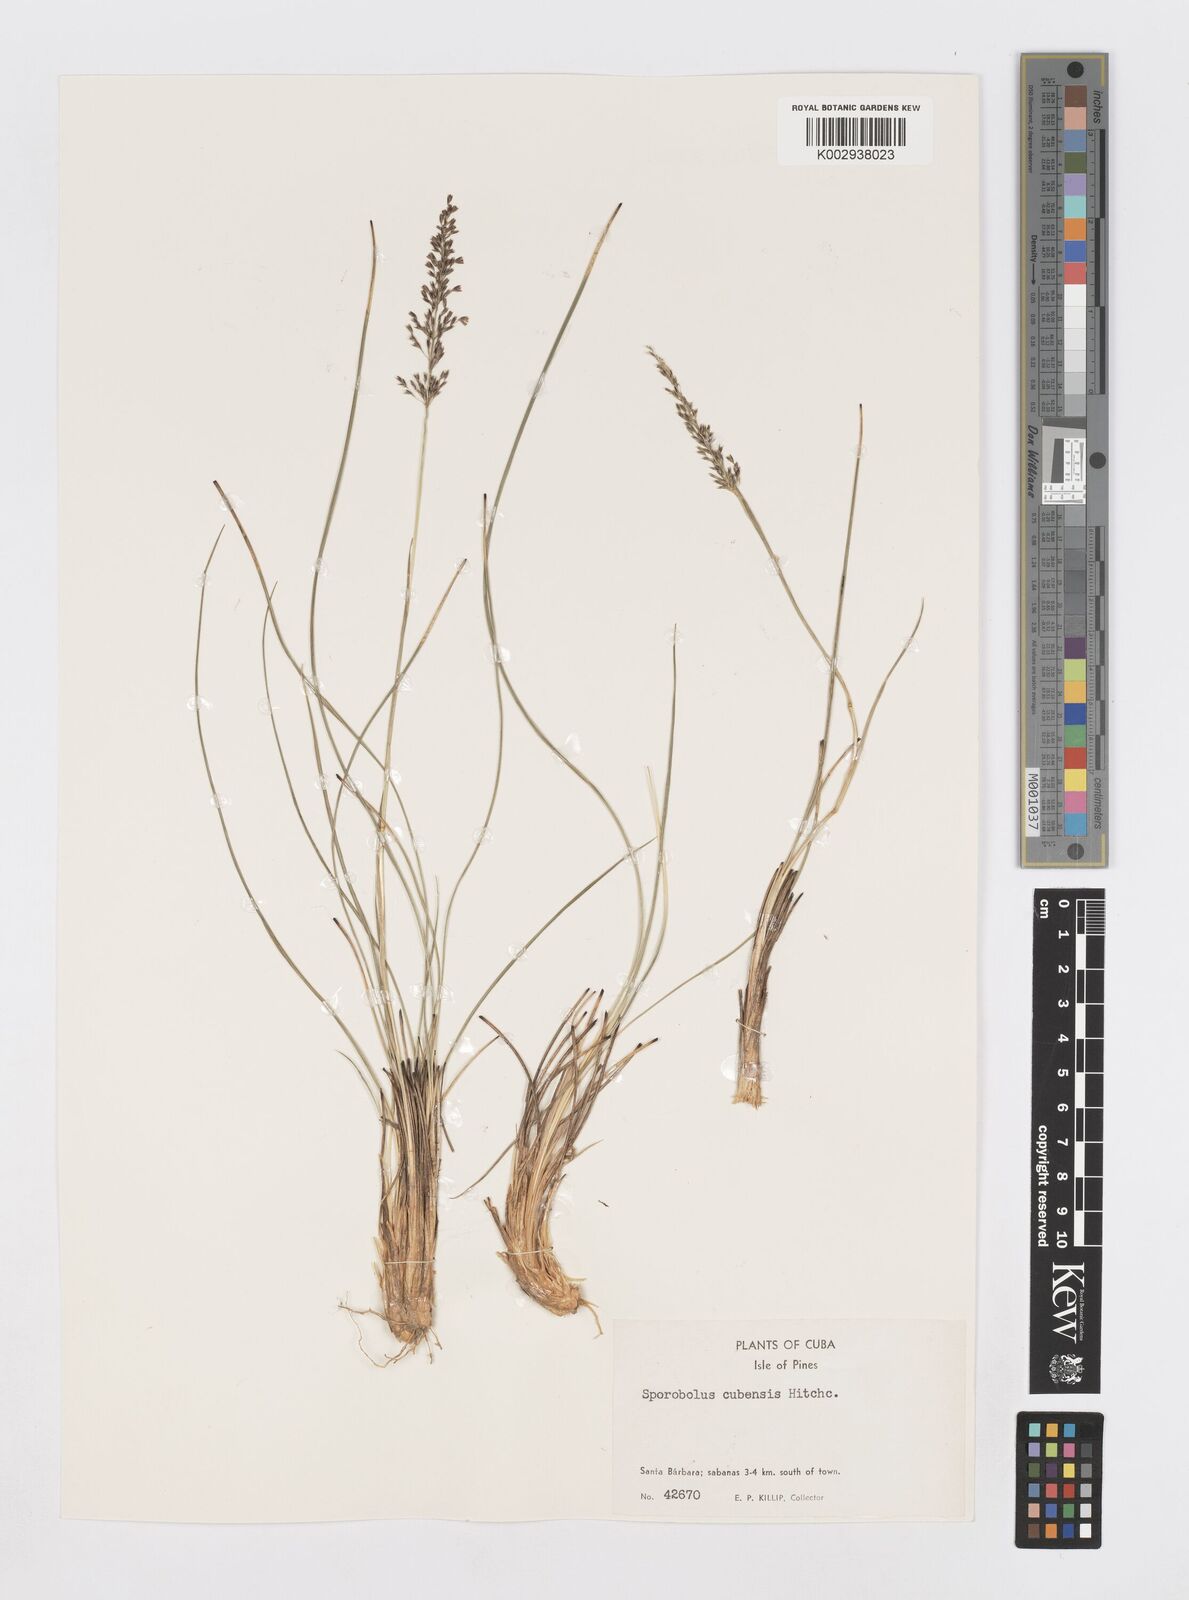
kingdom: Plantae
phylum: Tracheophyta
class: Liliopsida
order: Poales
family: Poaceae
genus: Sporobolus
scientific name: Sporobolus cubensis
